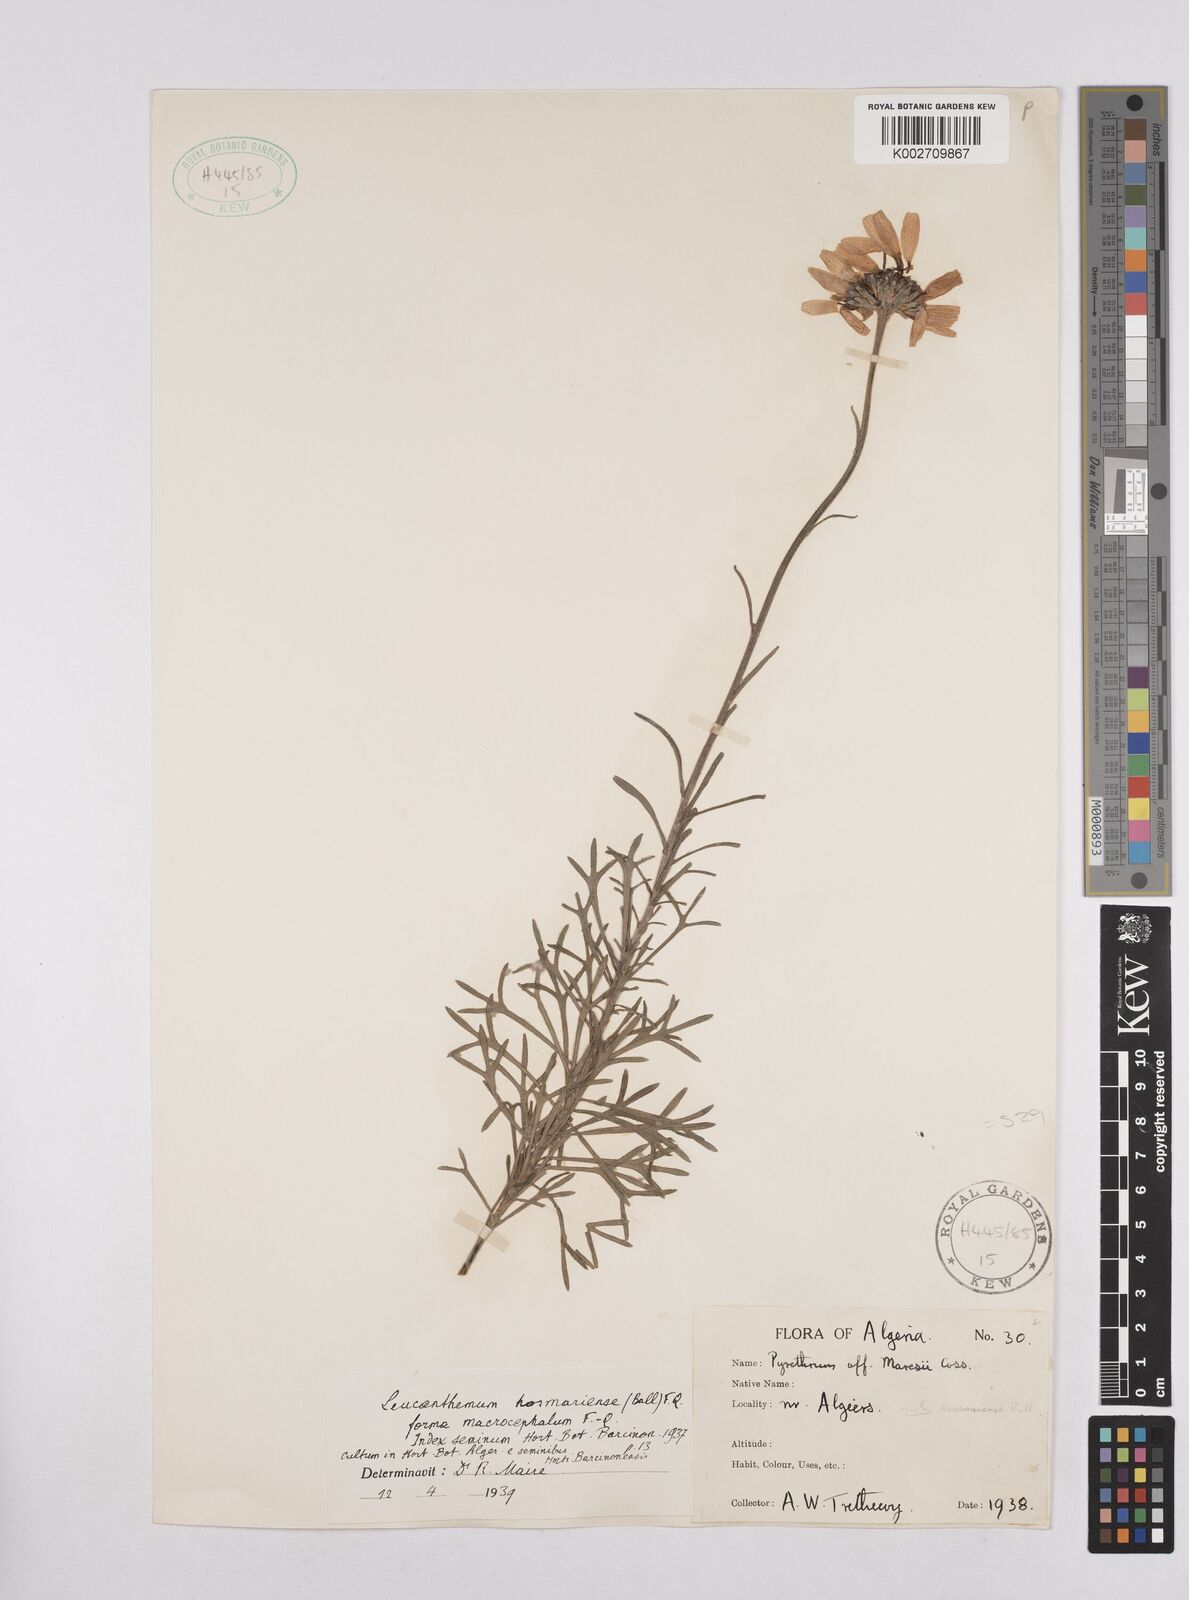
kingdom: Plantae
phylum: Tracheophyta
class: Magnoliopsida
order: Asterales
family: Asteraceae
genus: Rhodanthemum
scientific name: Rhodanthemum maresii
